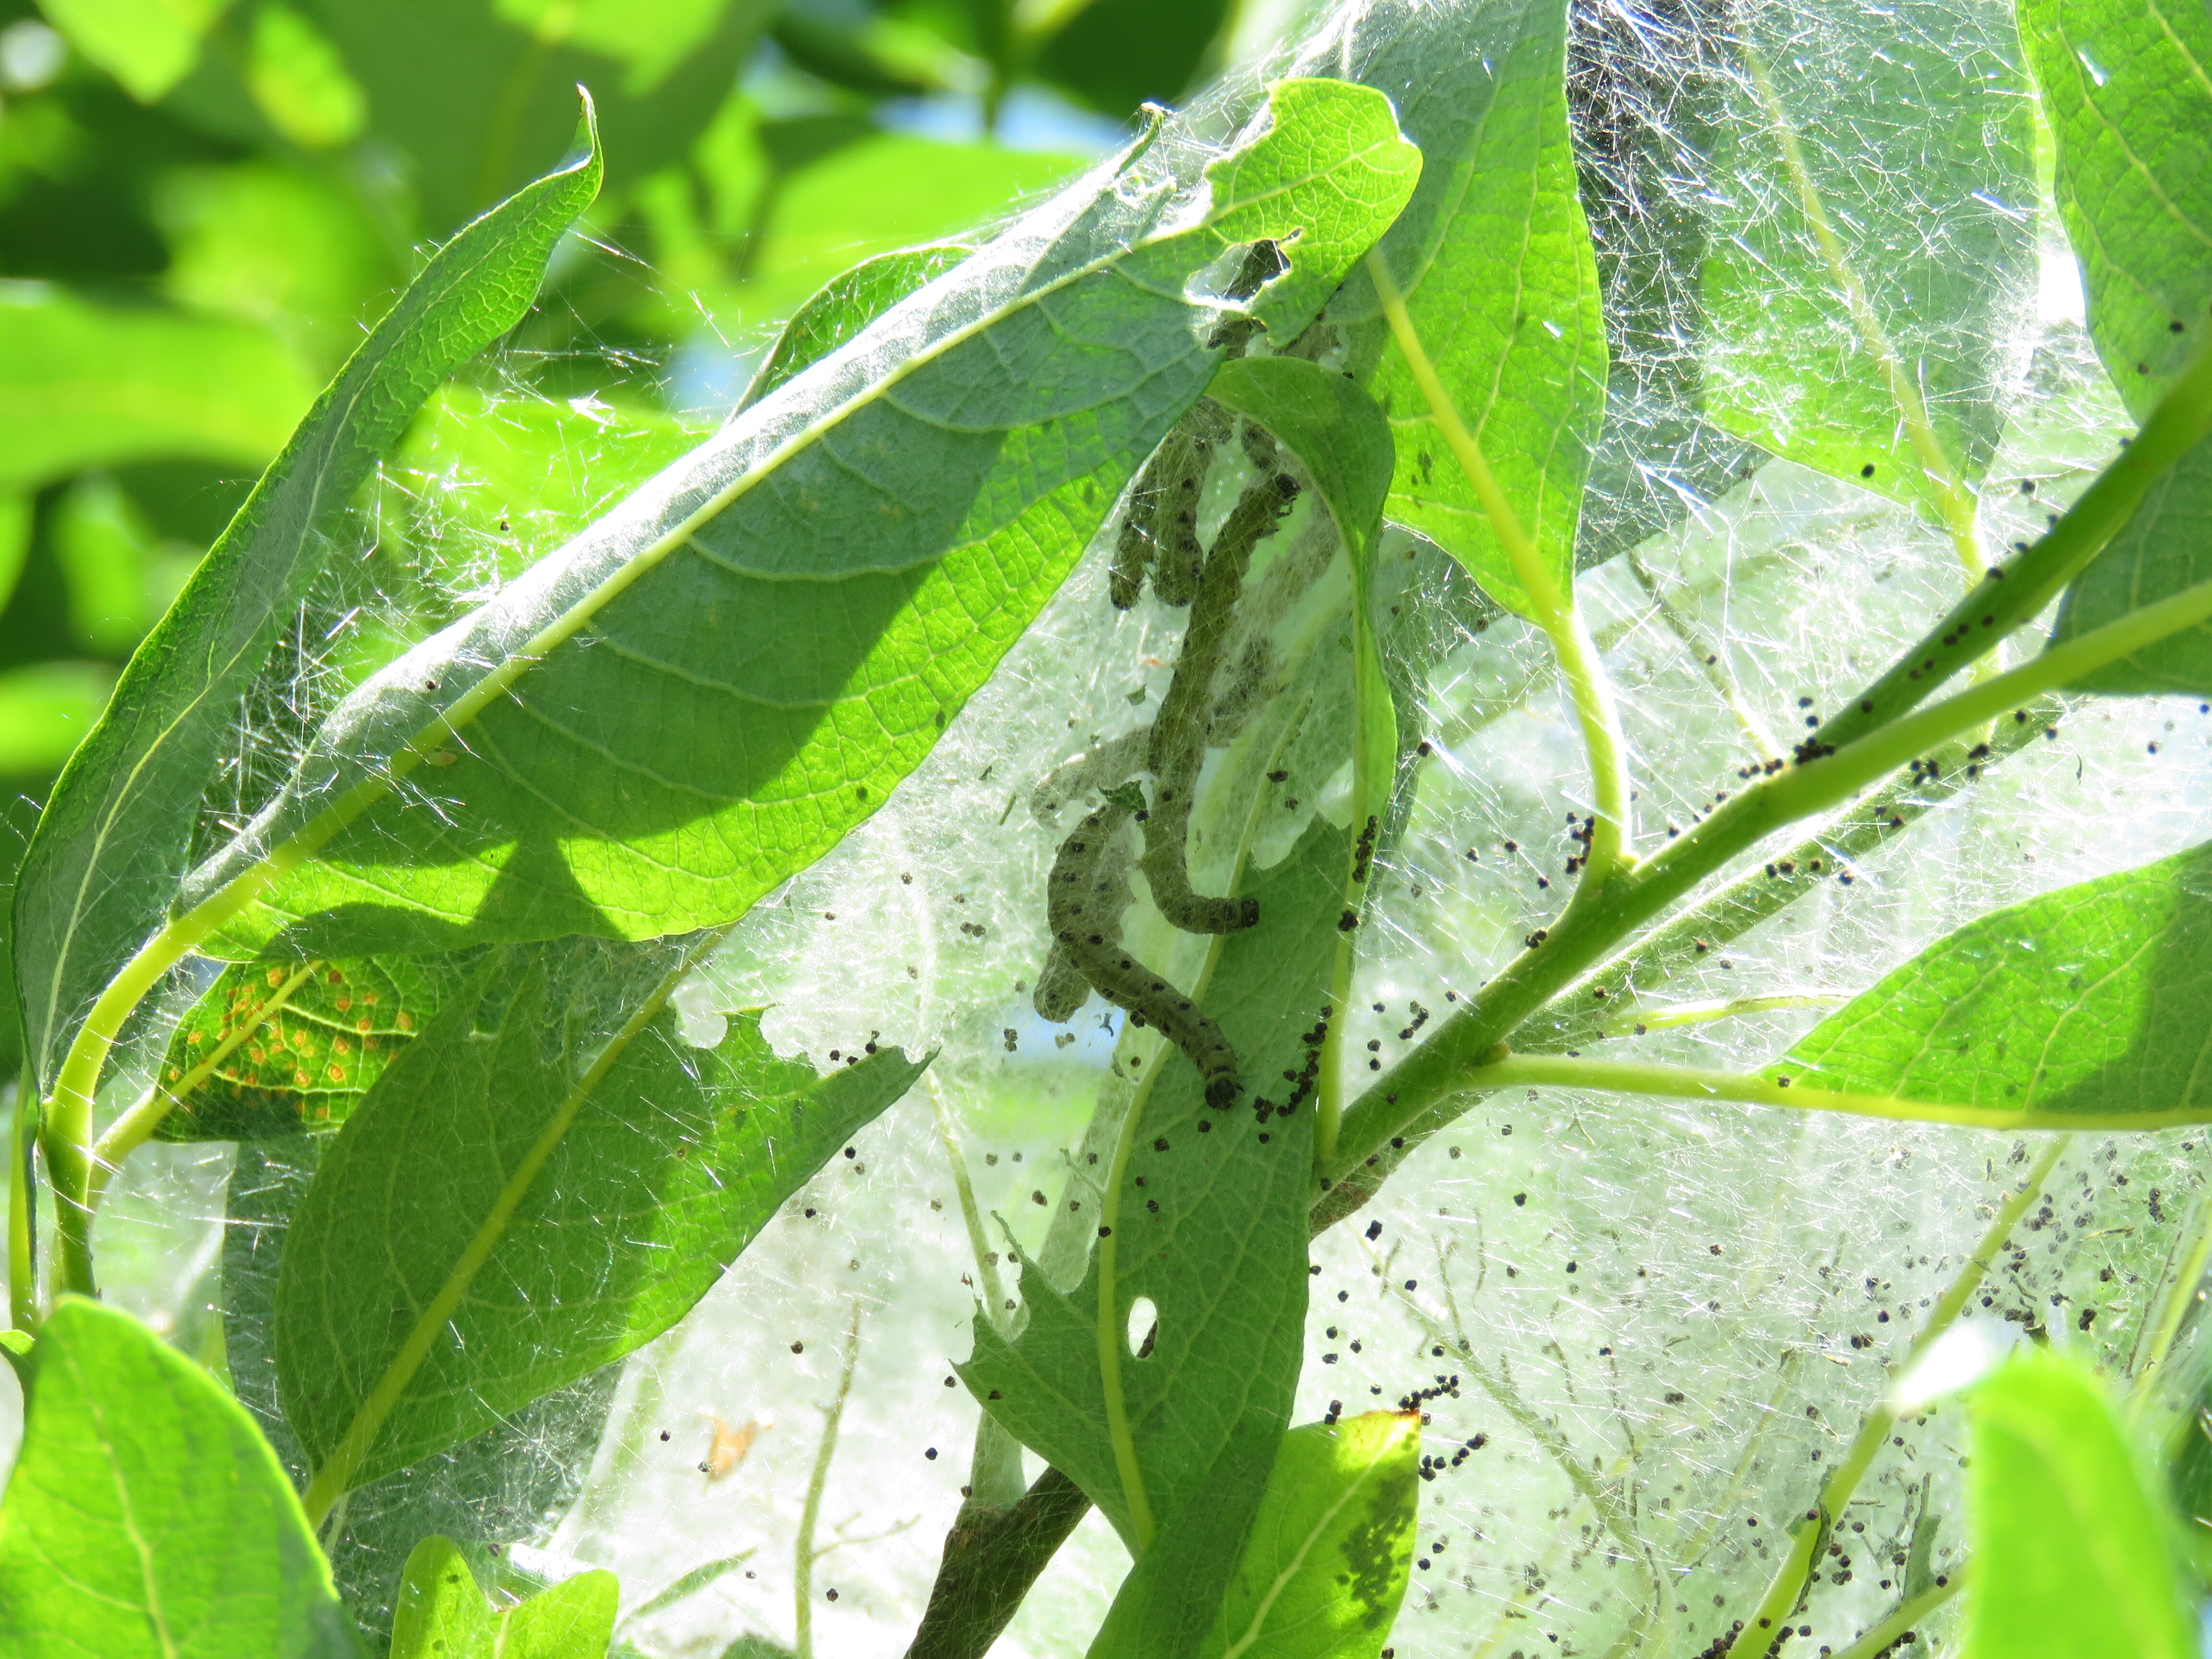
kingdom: Animalia
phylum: Arthropoda
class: Insecta
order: Lepidoptera
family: Yponomeutidae
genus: Yponomeuta
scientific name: Yponomeuta padella
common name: Orchard ermine
